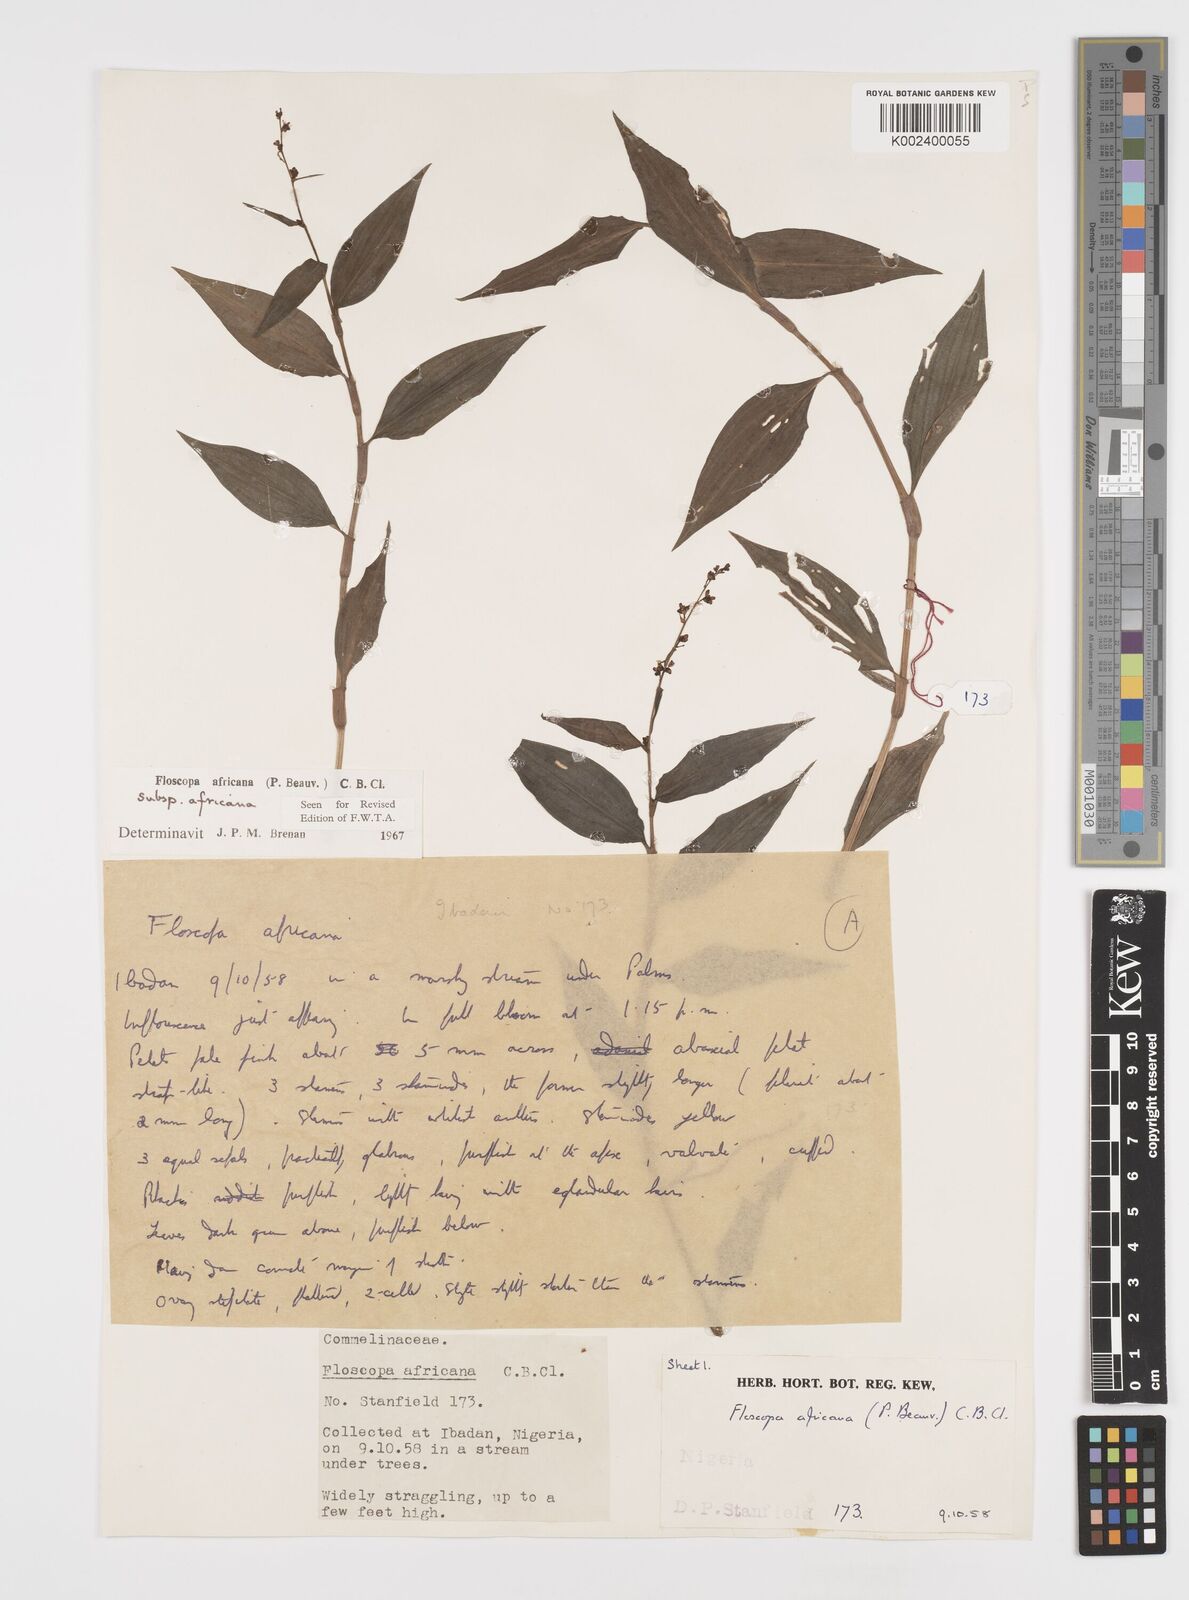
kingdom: Plantae
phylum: Tracheophyta
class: Liliopsida
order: Commelinales
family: Commelinaceae
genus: Floscopa
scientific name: Floscopa africana
